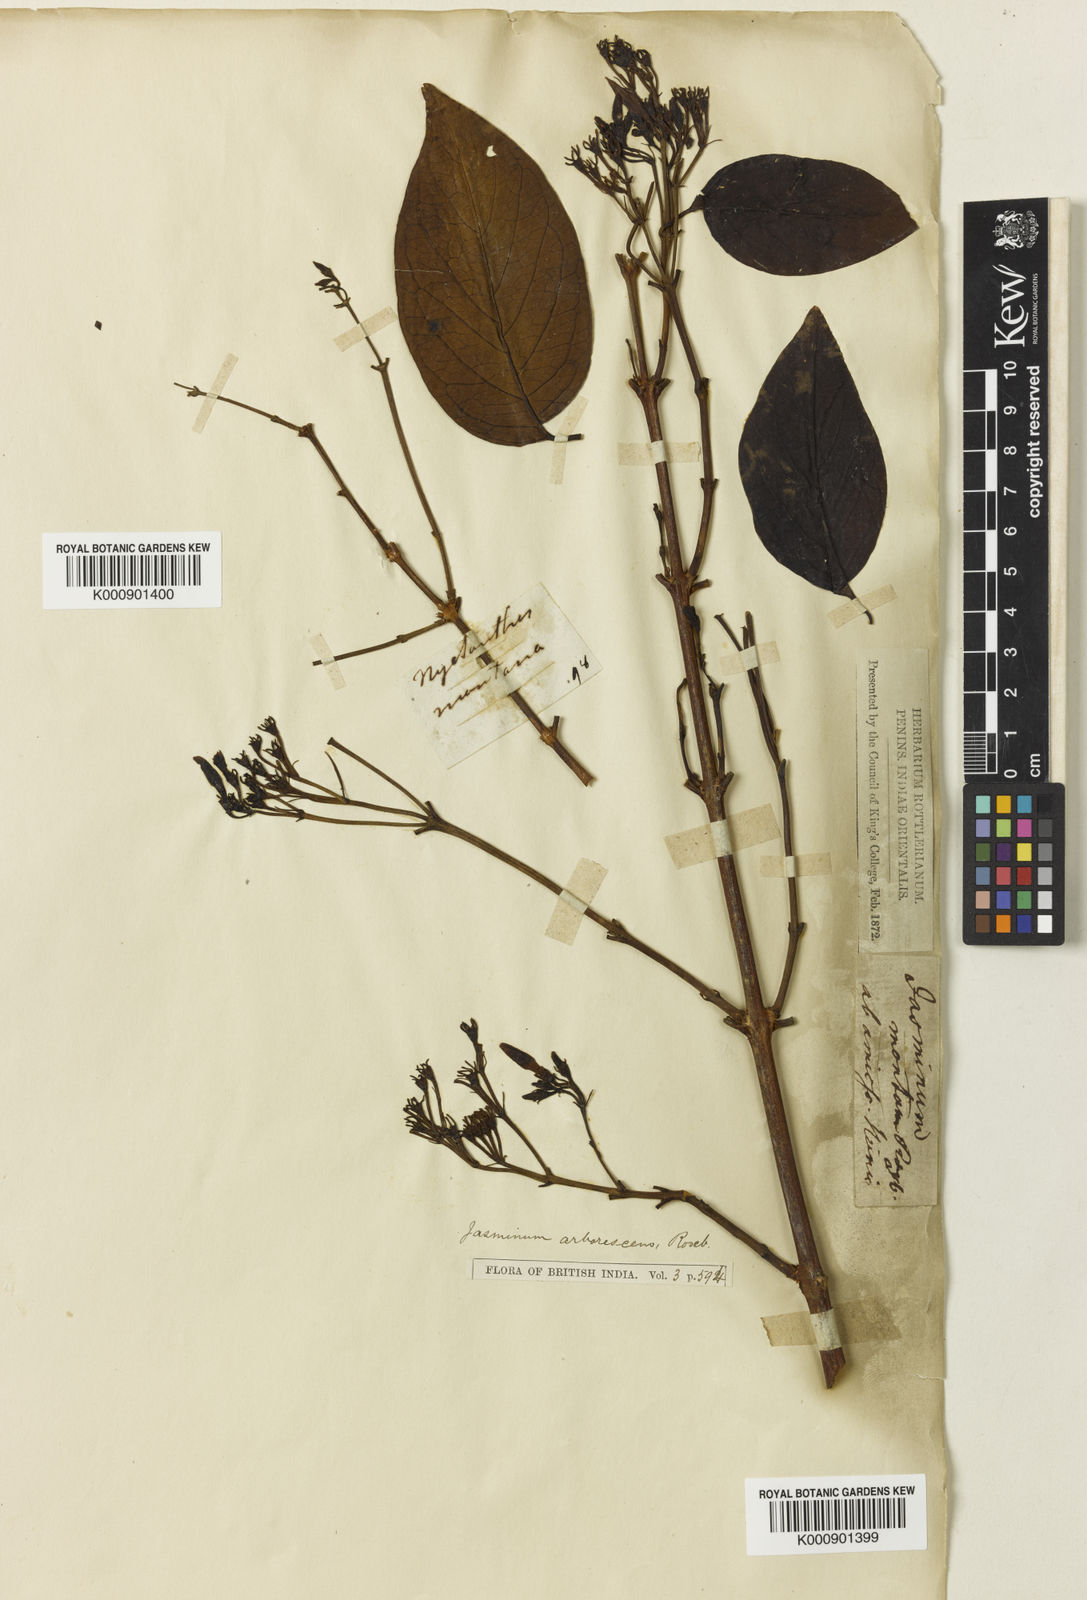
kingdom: Plantae
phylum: Tracheophyta
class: Magnoliopsida
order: Lamiales
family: Oleaceae
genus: Jasminum
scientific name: Jasminum arborescens
